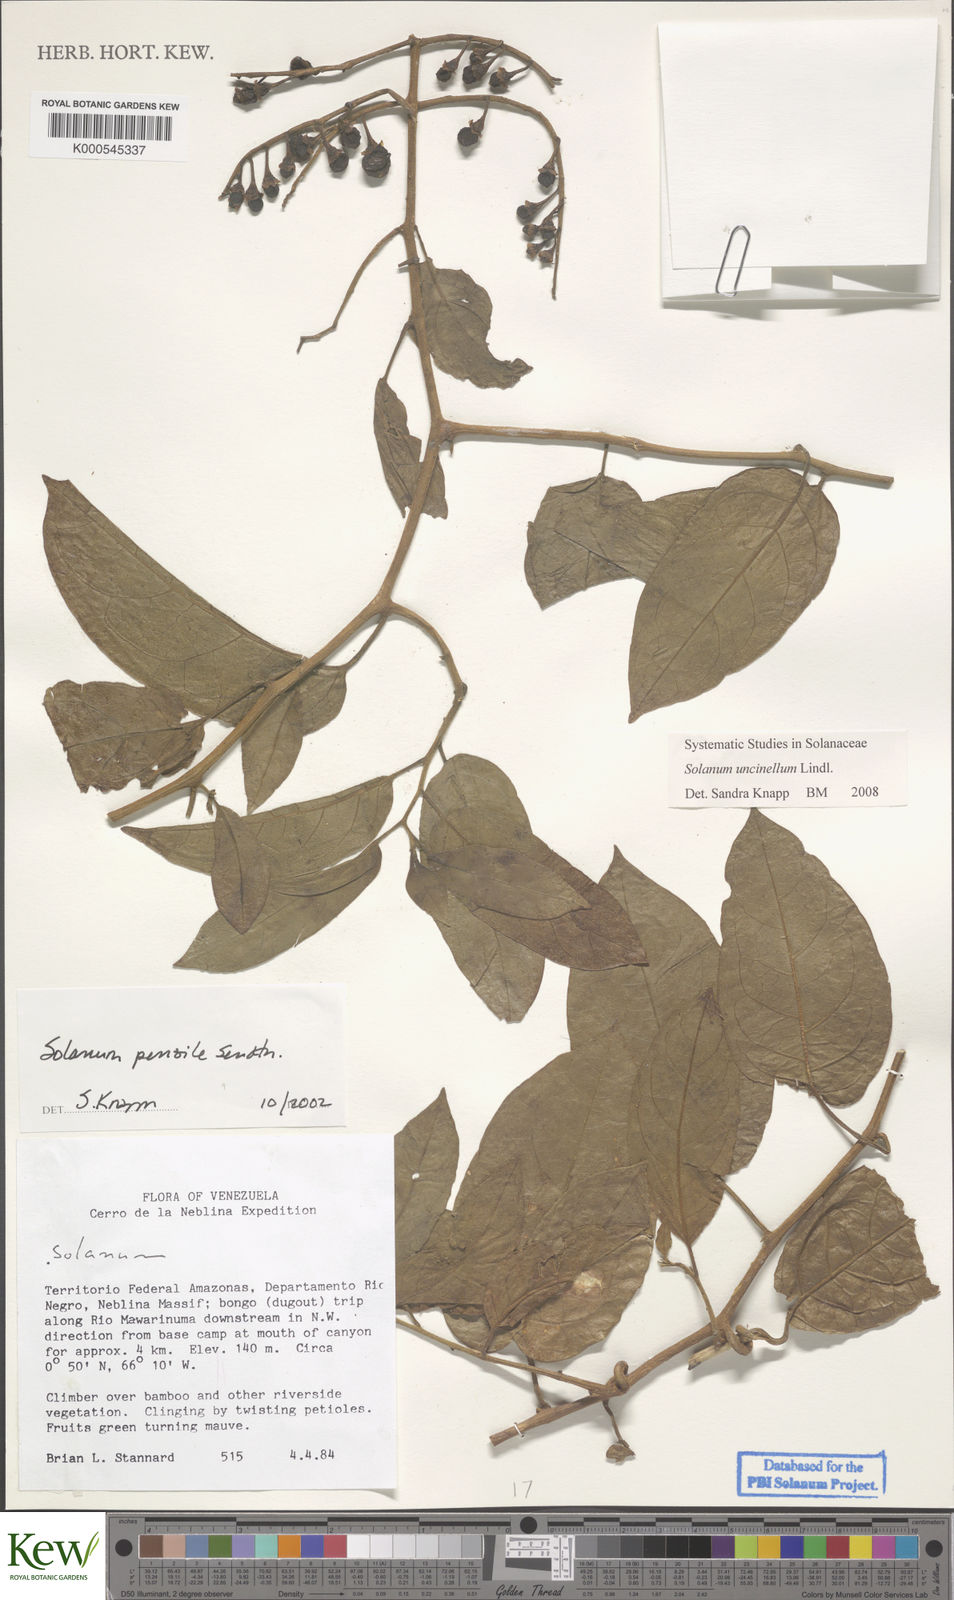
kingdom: Plantae
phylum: Tracheophyta
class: Magnoliopsida
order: Solanales
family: Solanaceae
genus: Solanum
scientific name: Solanum uncinellum
